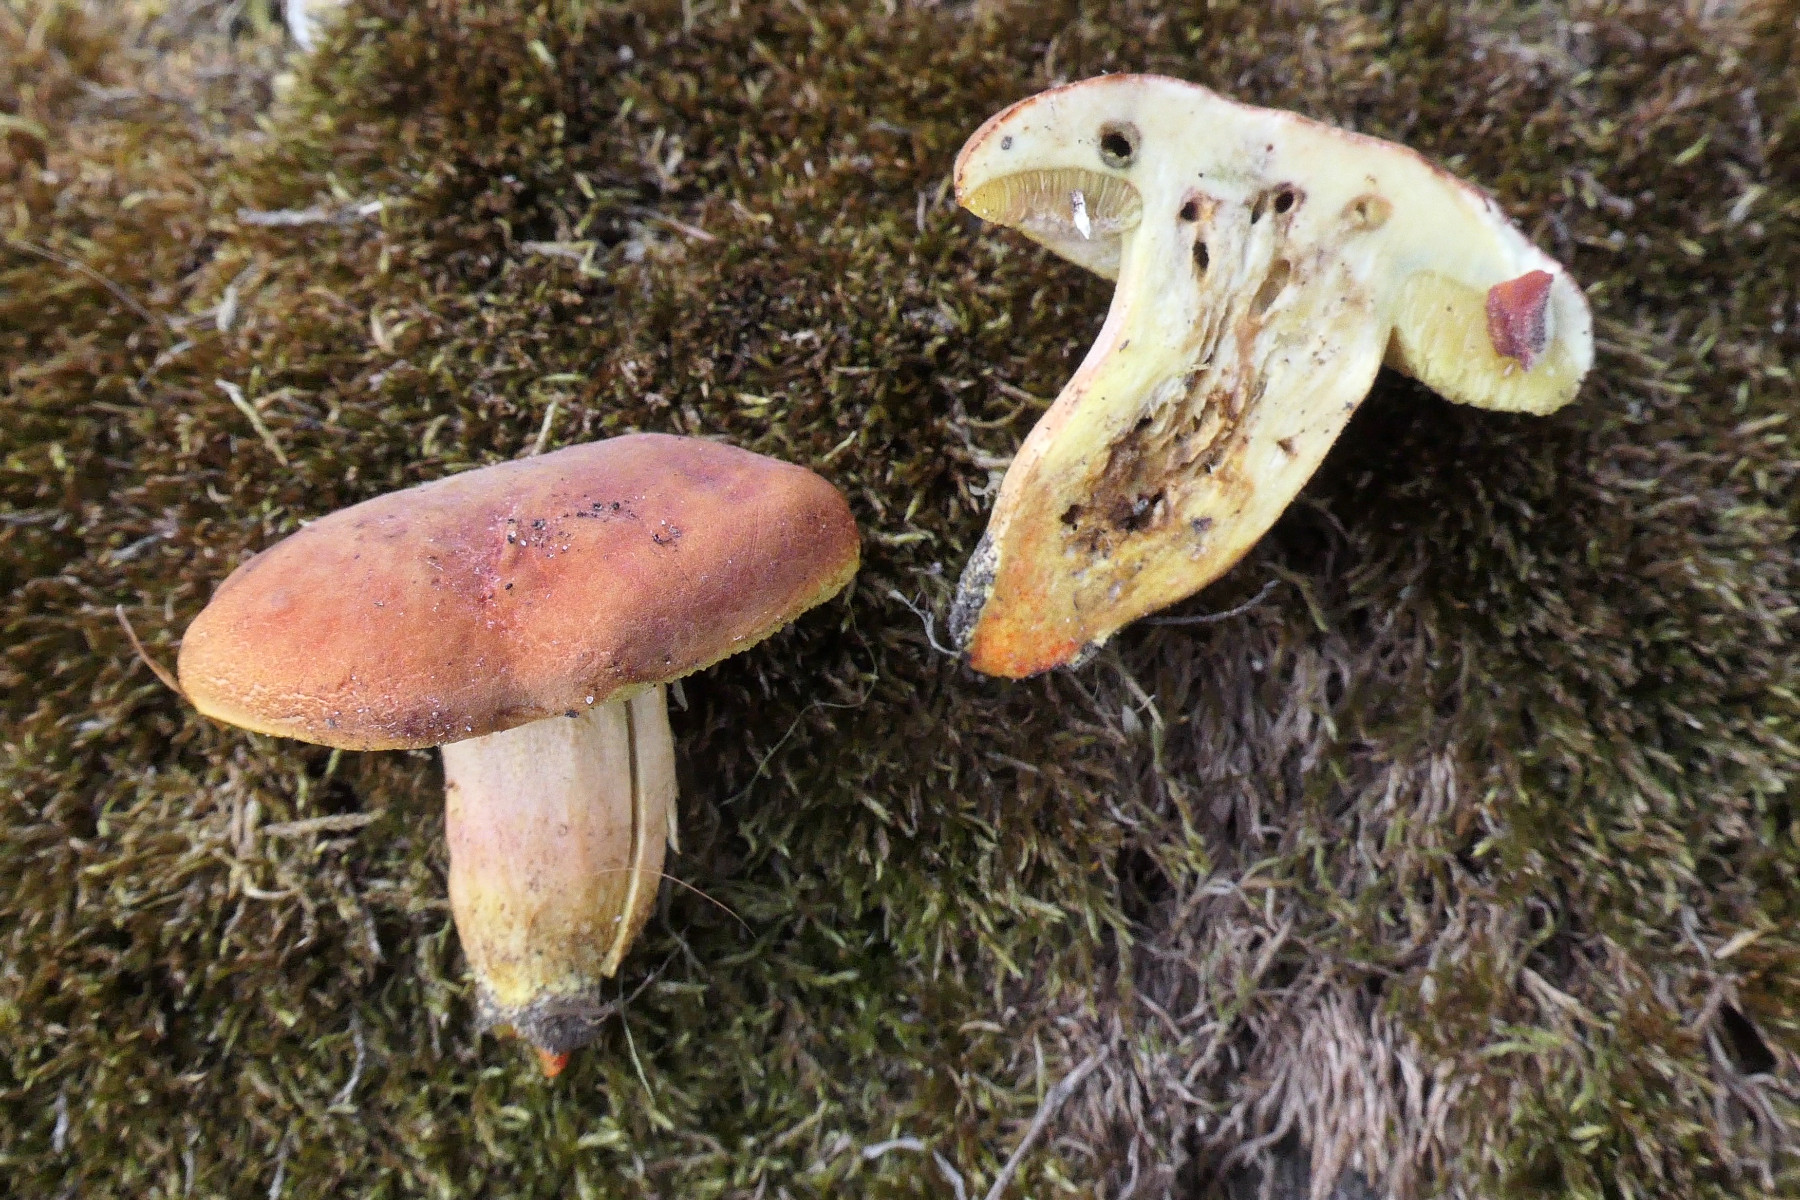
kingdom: Fungi
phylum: Basidiomycota
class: Agaricomycetes
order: Boletales
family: Boletaceae
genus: Hortiboletus
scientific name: Hortiboletus engelii
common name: fersken-rørhat
